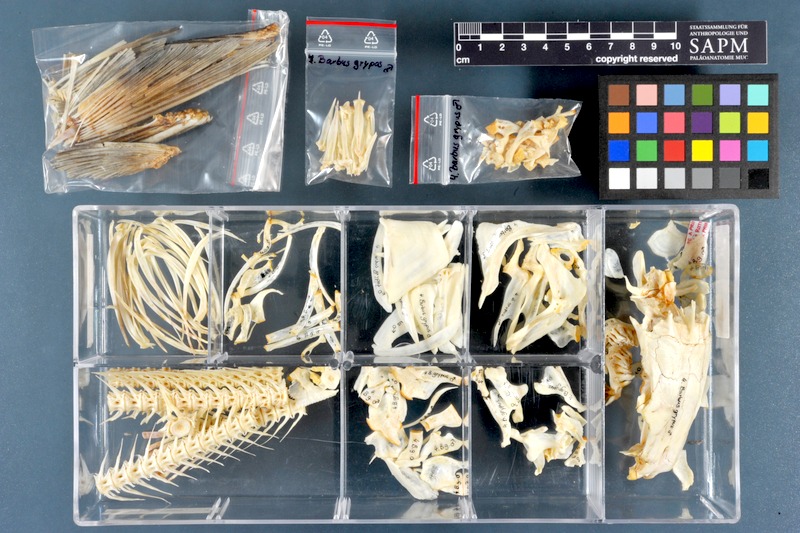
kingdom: Animalia
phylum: Chordata
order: Cypriniformes
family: Cyprinidae
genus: Arabibarbus
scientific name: Arabibarbus grypus
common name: Shabout
